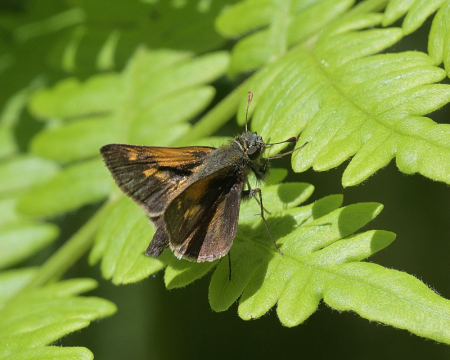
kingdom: Animalia
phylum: Arthropoda
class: Insecta
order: Lepidoptera
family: Hesperiidae
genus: Polites
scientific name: Polites themistocles
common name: Tawny-edged Skipper
